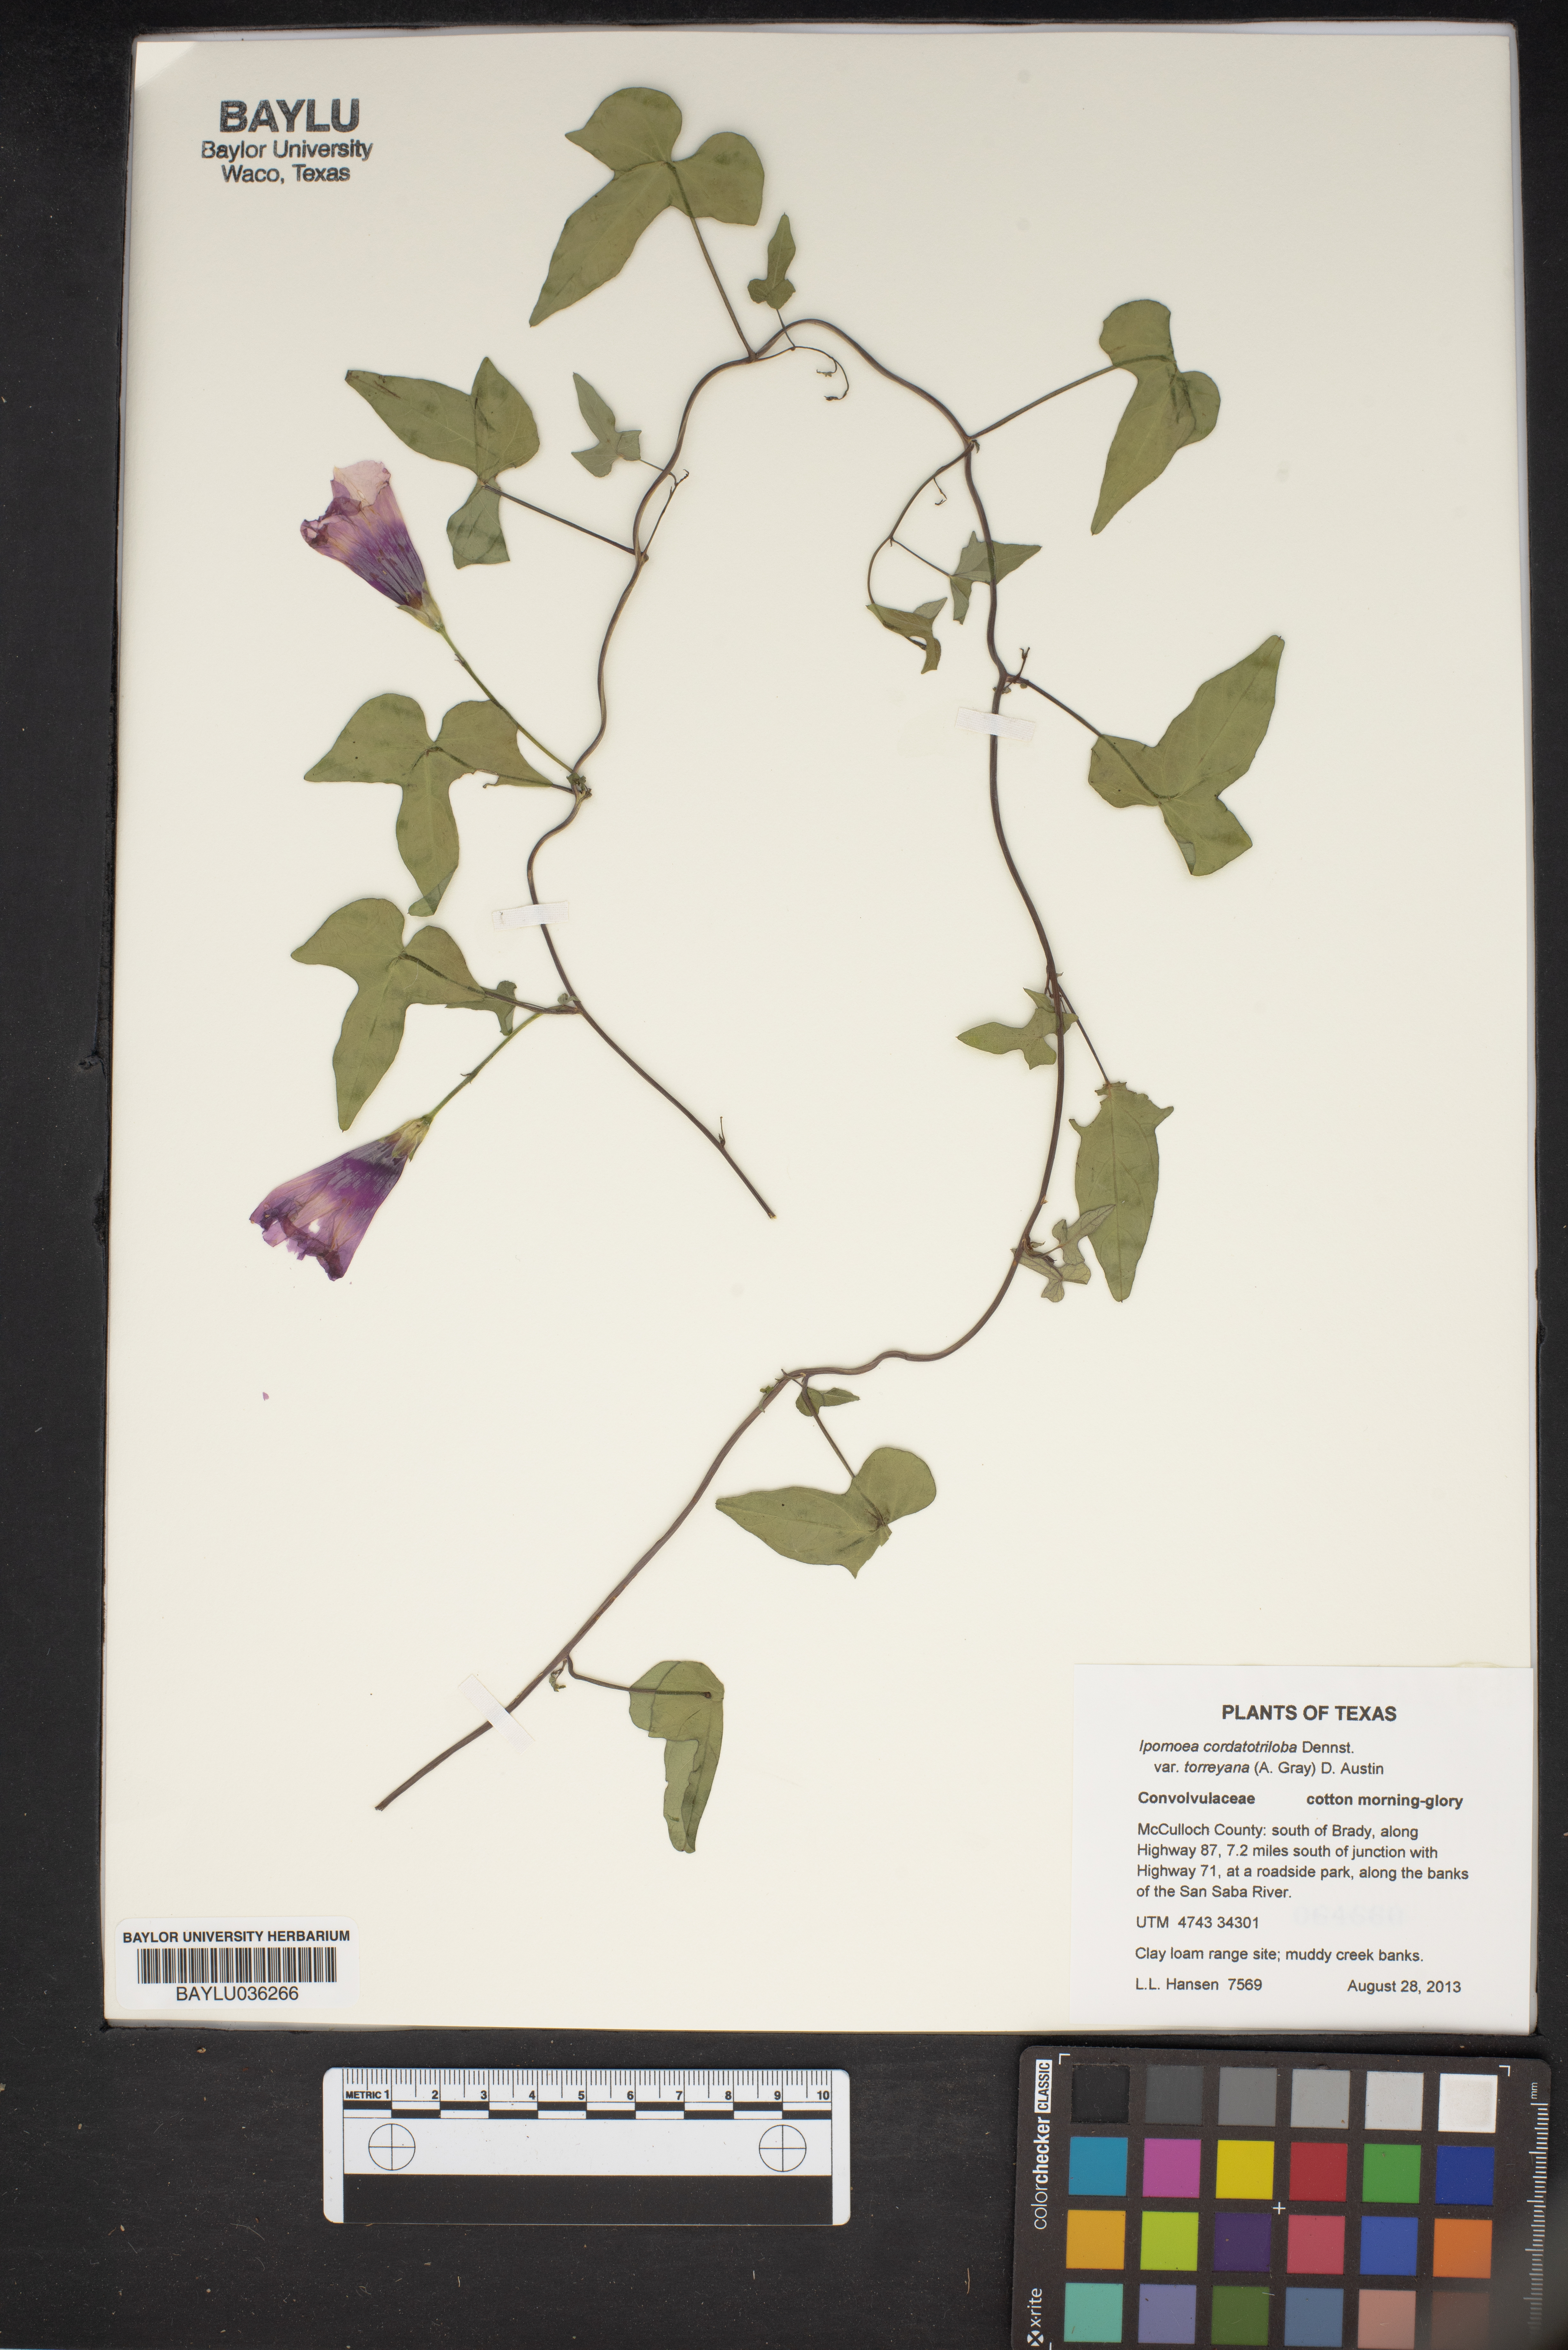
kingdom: Plantae
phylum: Tracheophyta
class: Magnoliopsida
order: Solanales
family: Convolvulaceae
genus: Ipomoea
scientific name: Ipomoea cordatotriloba
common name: Cotton morning glory
